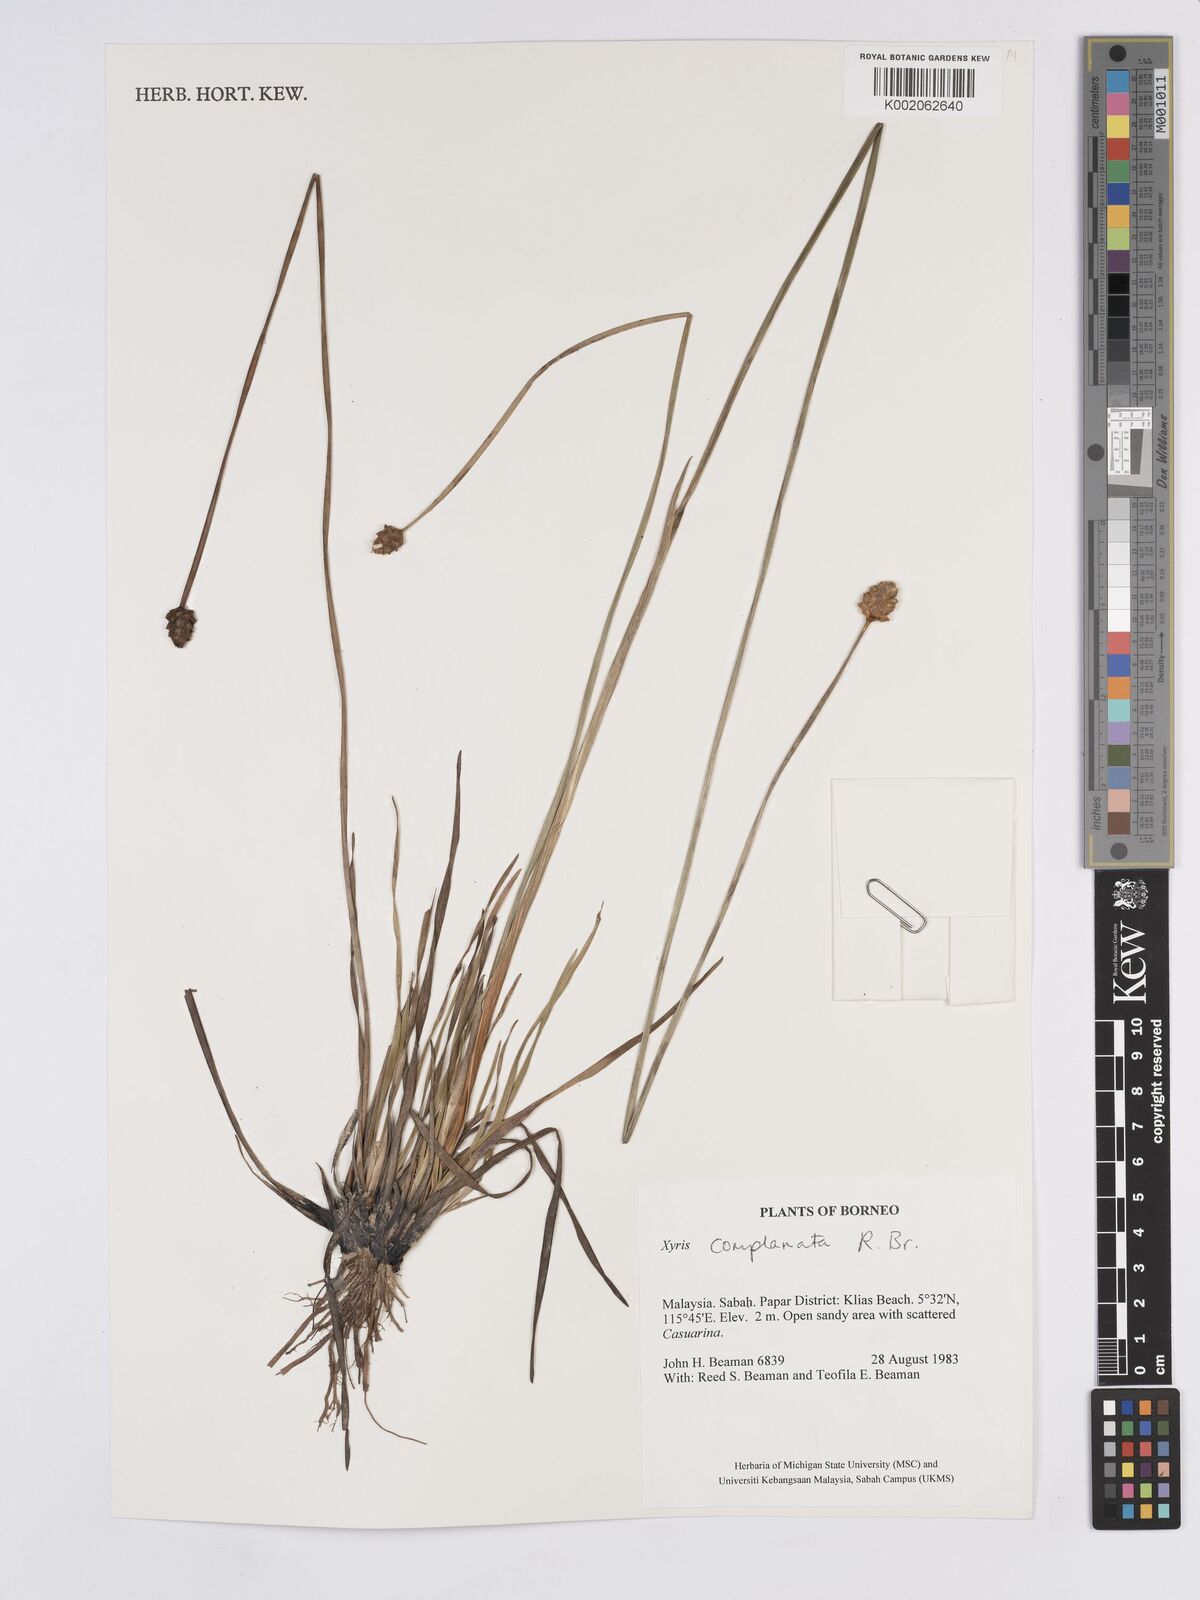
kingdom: Plantae
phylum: Tracheophyta
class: Liliopsida
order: Poales
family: Xyridaceae
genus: Xyris
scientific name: Xyris complanata
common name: Hawai'i yelloweyed grass
